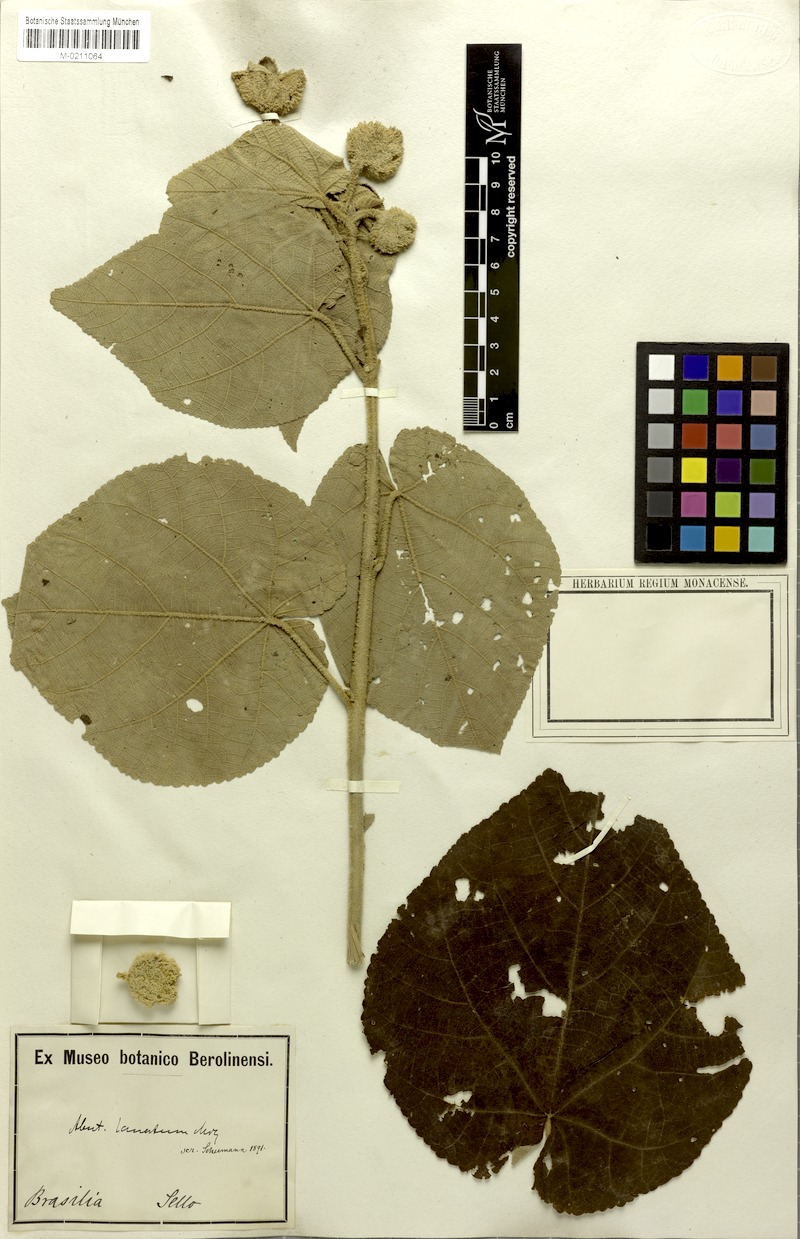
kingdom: Plantae
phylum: Tracheophyta
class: Magnoliopsida
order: Malvales
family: Malvaceae
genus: Callianthe
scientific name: Callianthe lanata
